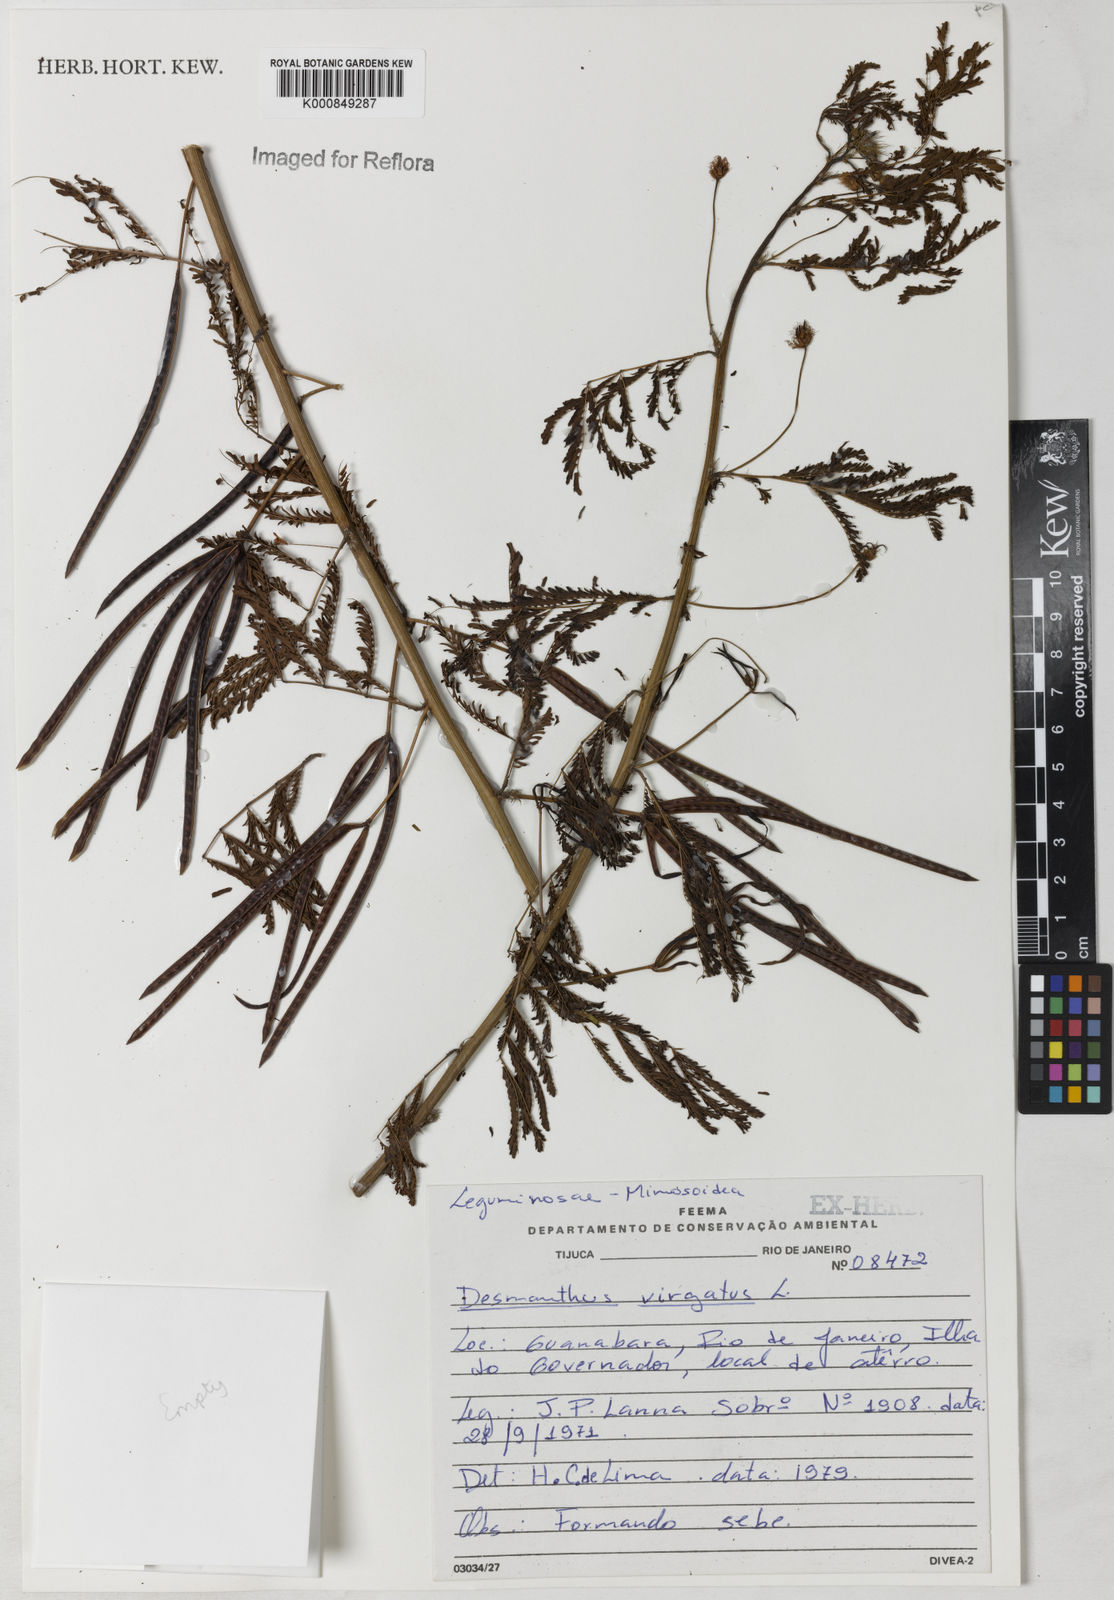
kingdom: Plantae
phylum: Tracheophyta
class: Magnoliopsida
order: Fabales
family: Fabaceae
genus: Desmanthus
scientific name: Desmanthus virgatus
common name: Wild tantan
